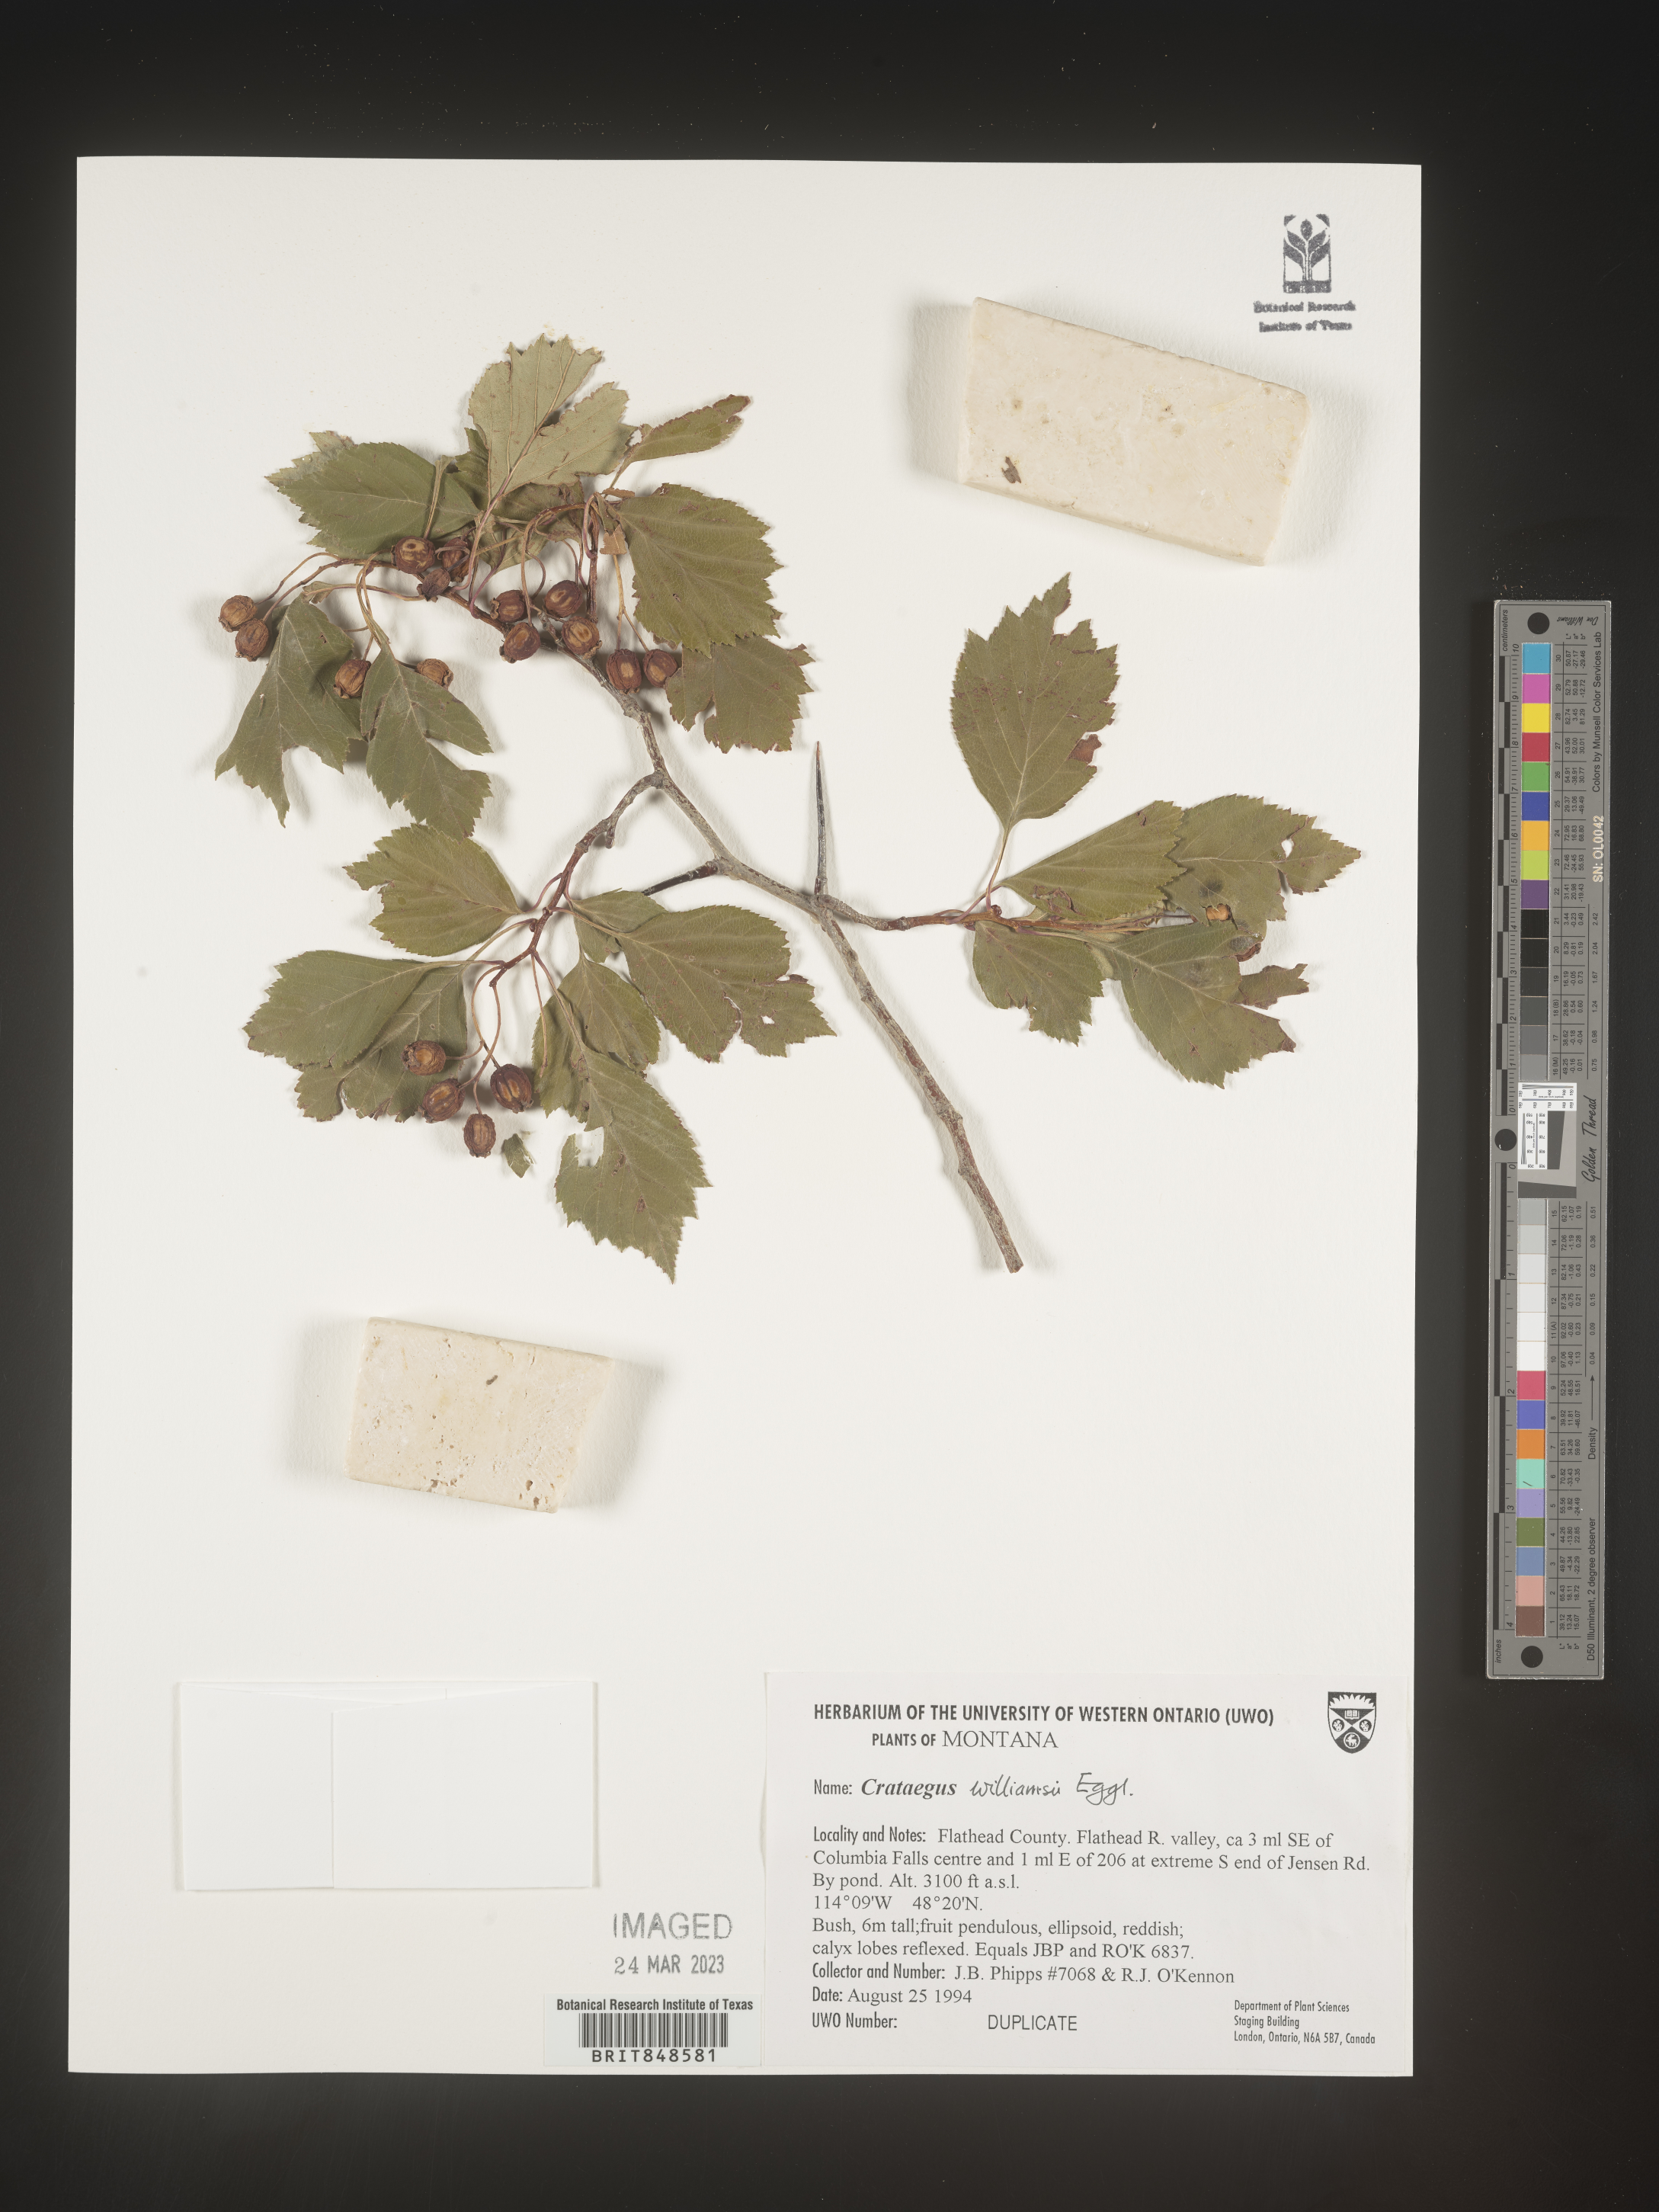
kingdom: Plantae
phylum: Tracheophyta
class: Magnoliopsida
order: Rosales
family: Rosaceae
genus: Crataegus
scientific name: Crataegus williamsii
